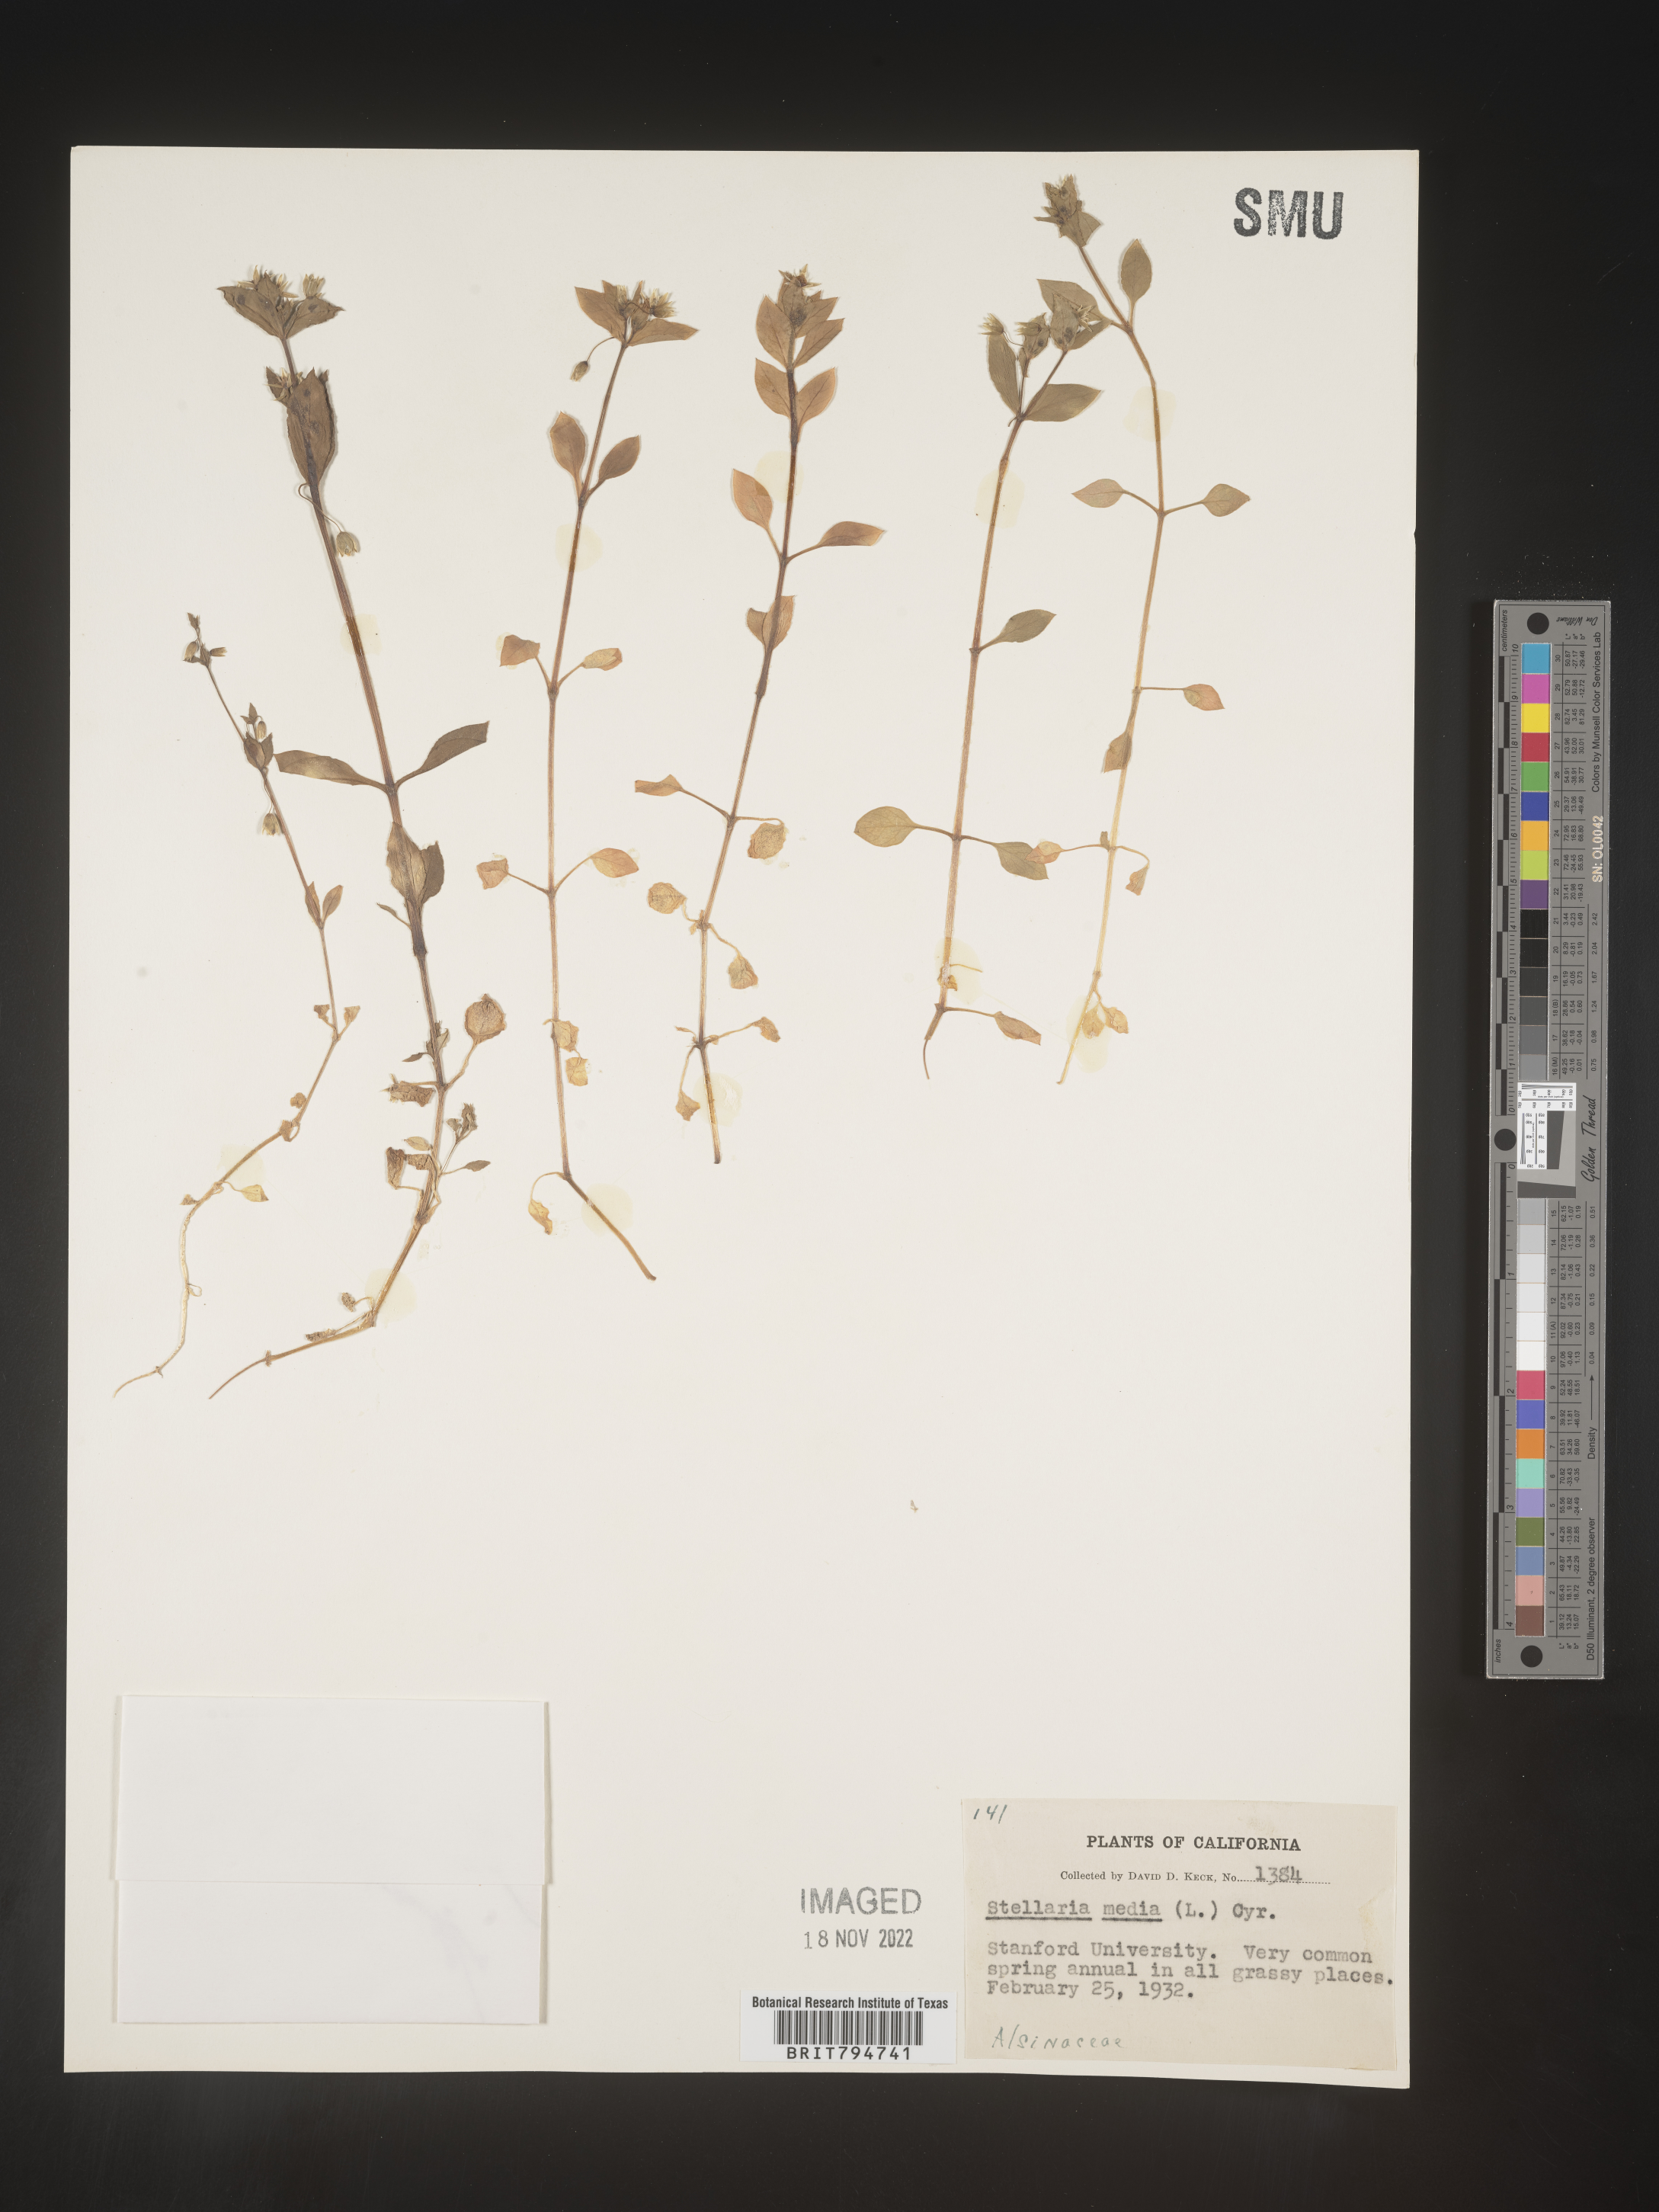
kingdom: Plantae
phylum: Tracheophyta
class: Magnoliopsida
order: Caryophyllales
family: Caryophyllaceae
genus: Stellaria
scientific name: Stellaria media
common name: Common chickweed
